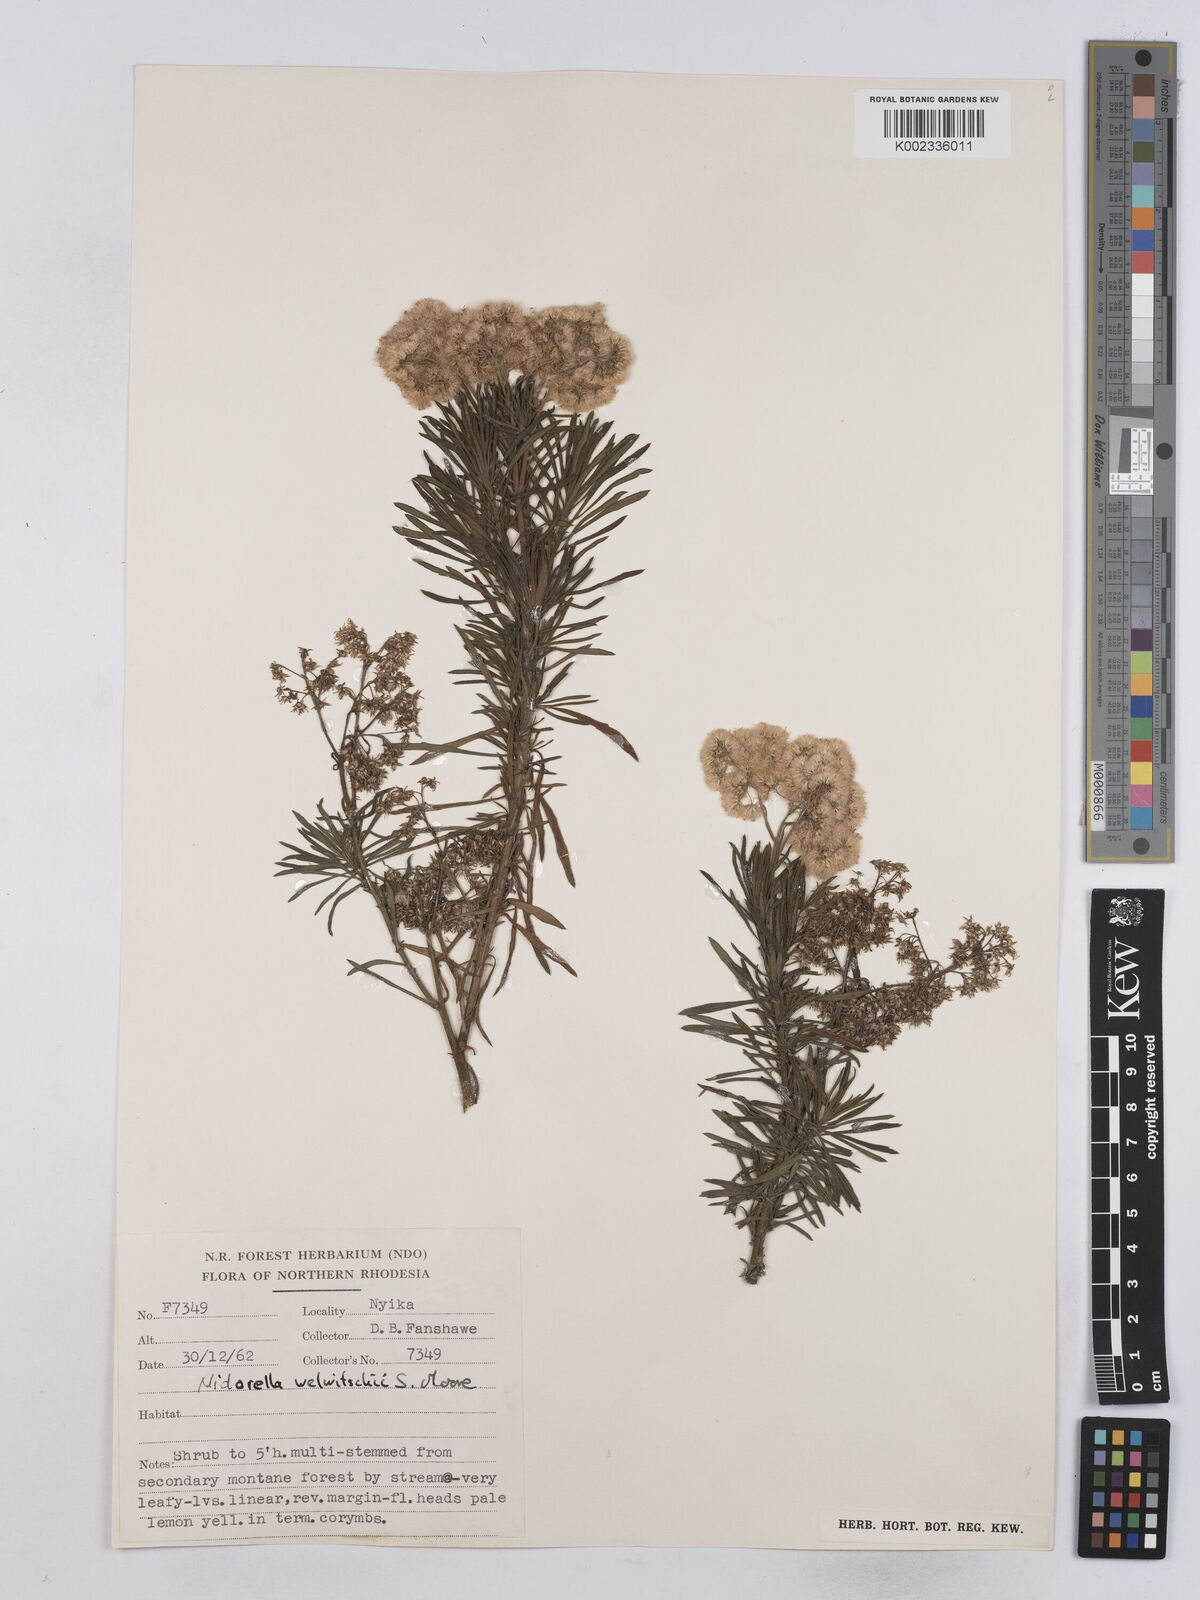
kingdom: Plantae
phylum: Tracheophyta
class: Magnoliopsida
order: Asterales
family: Asteraceae
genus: Nidorella
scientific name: Nidorella welwitschii
